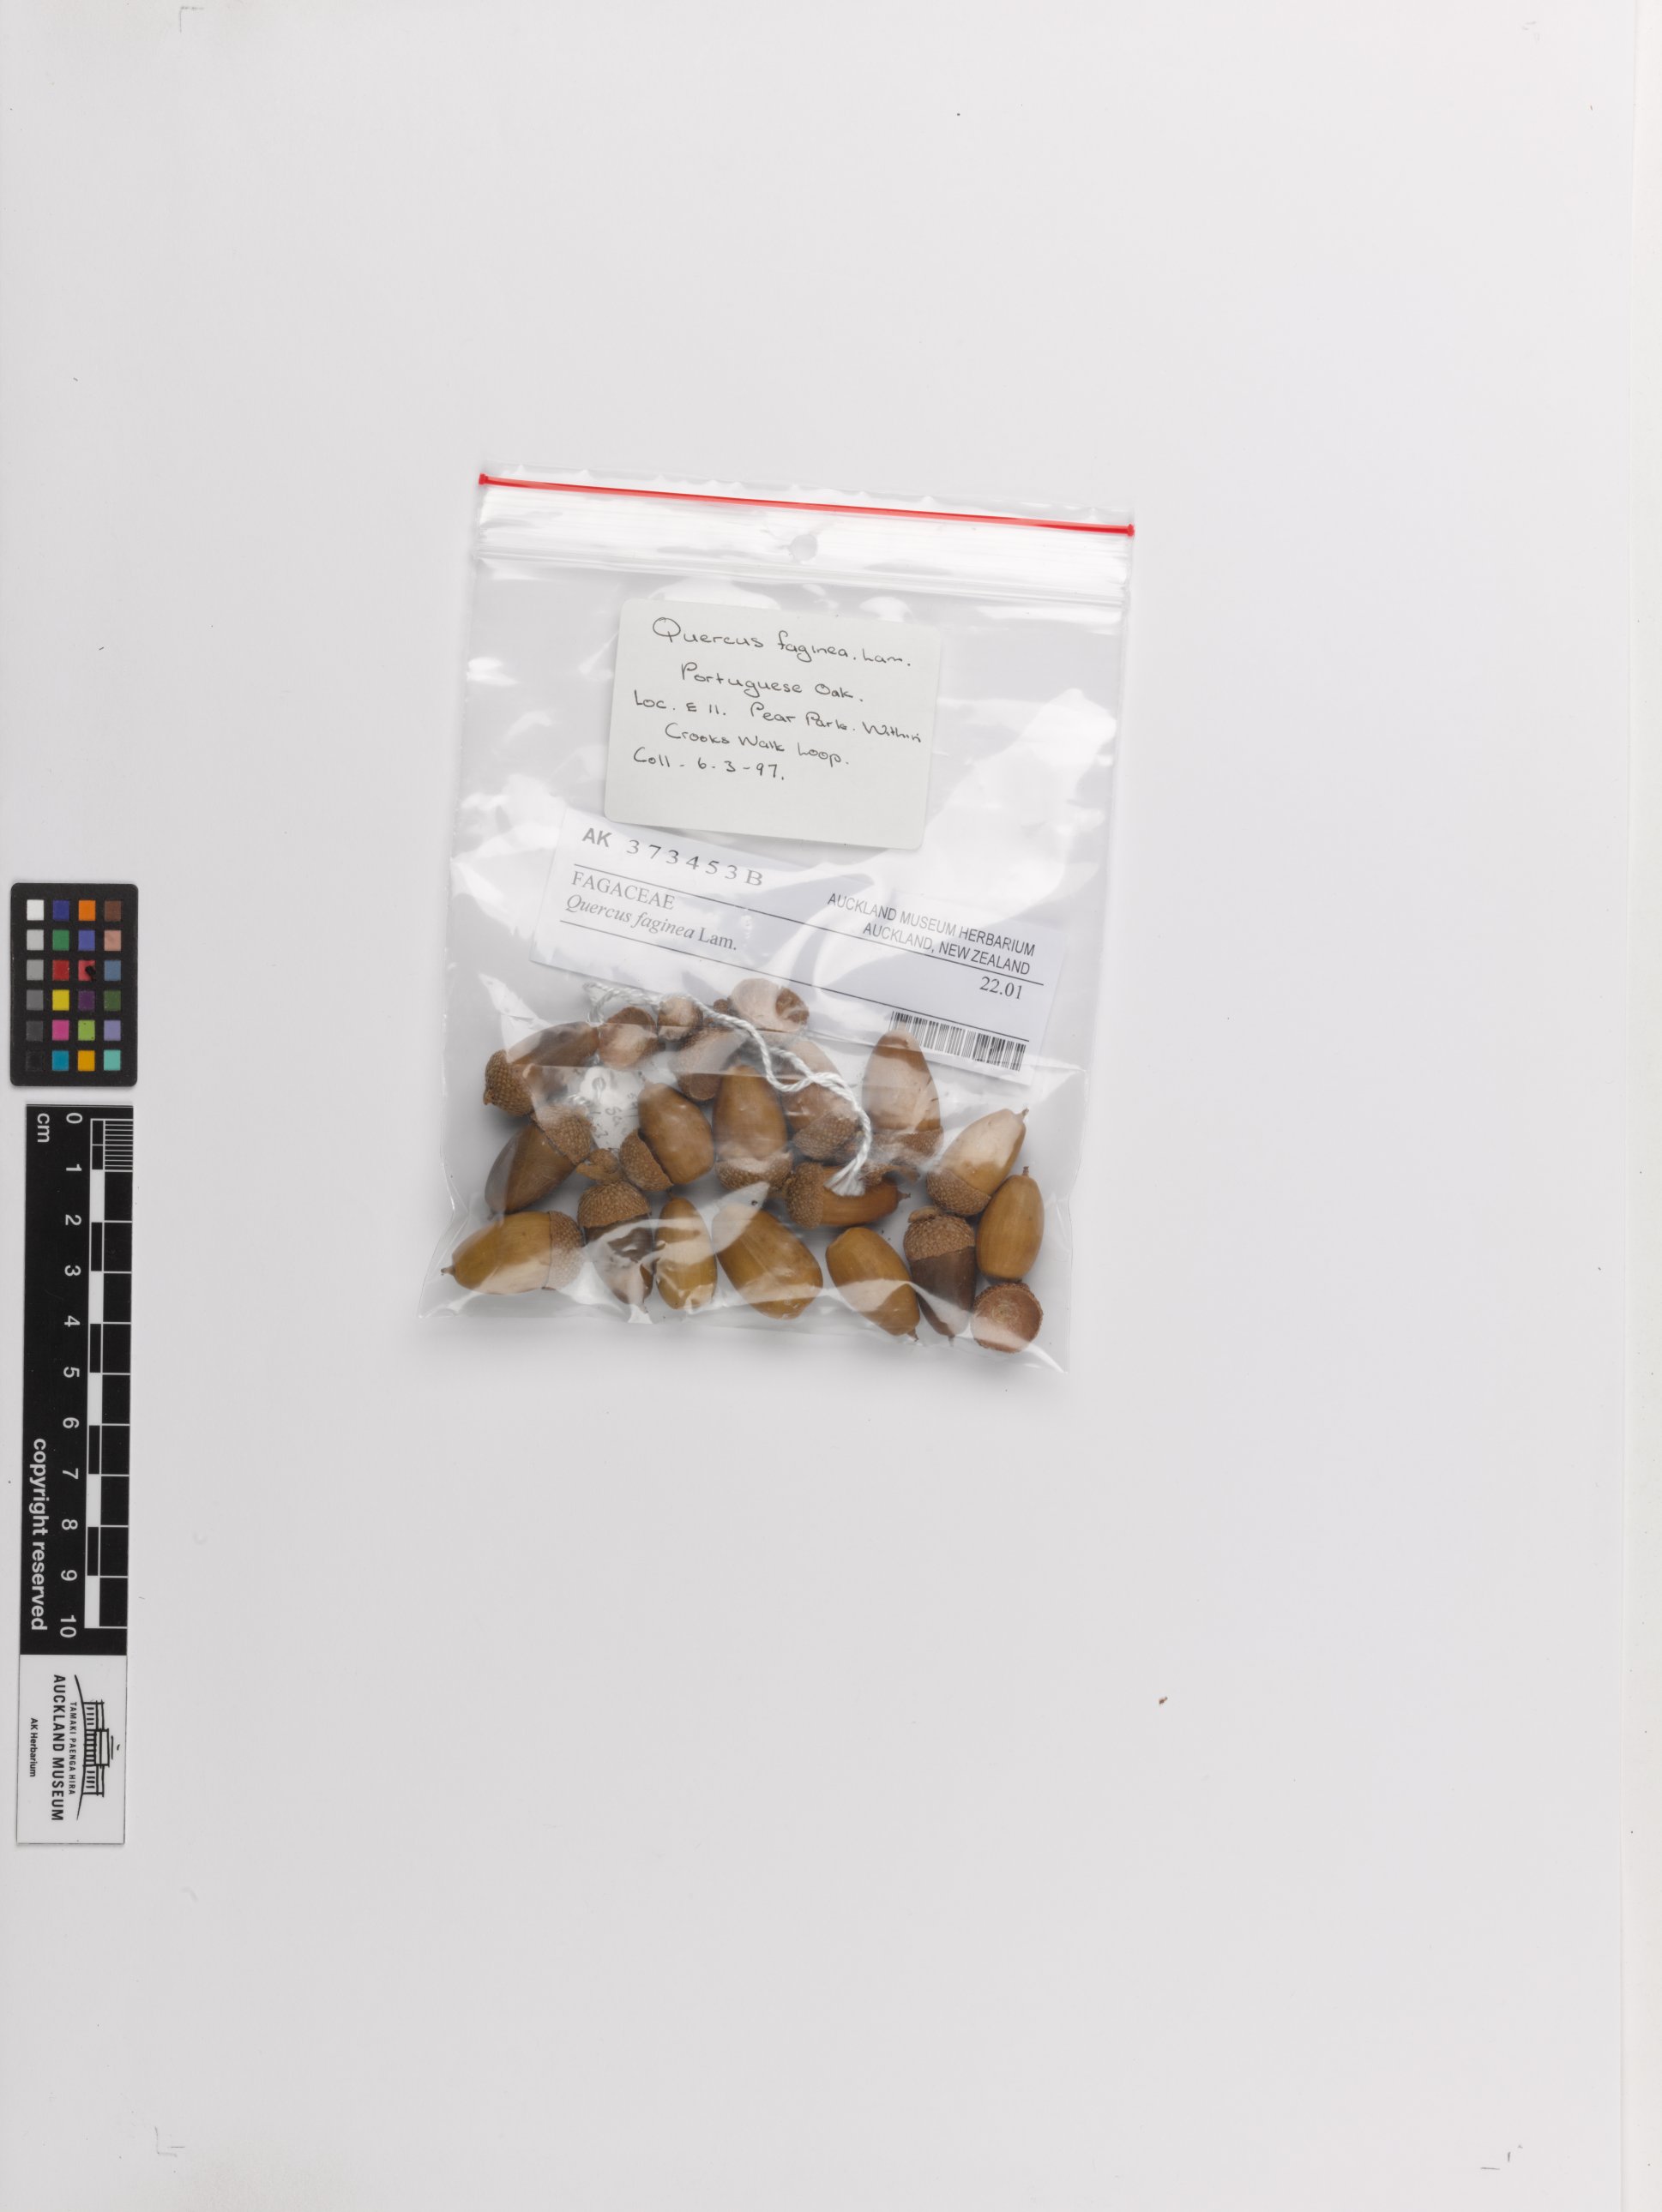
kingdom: Plantae
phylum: Tracheophyta
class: Magnoliopsida
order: Fagales
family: Fagaceae
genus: Quercus
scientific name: Quercus faginea
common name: Gall oak tree
